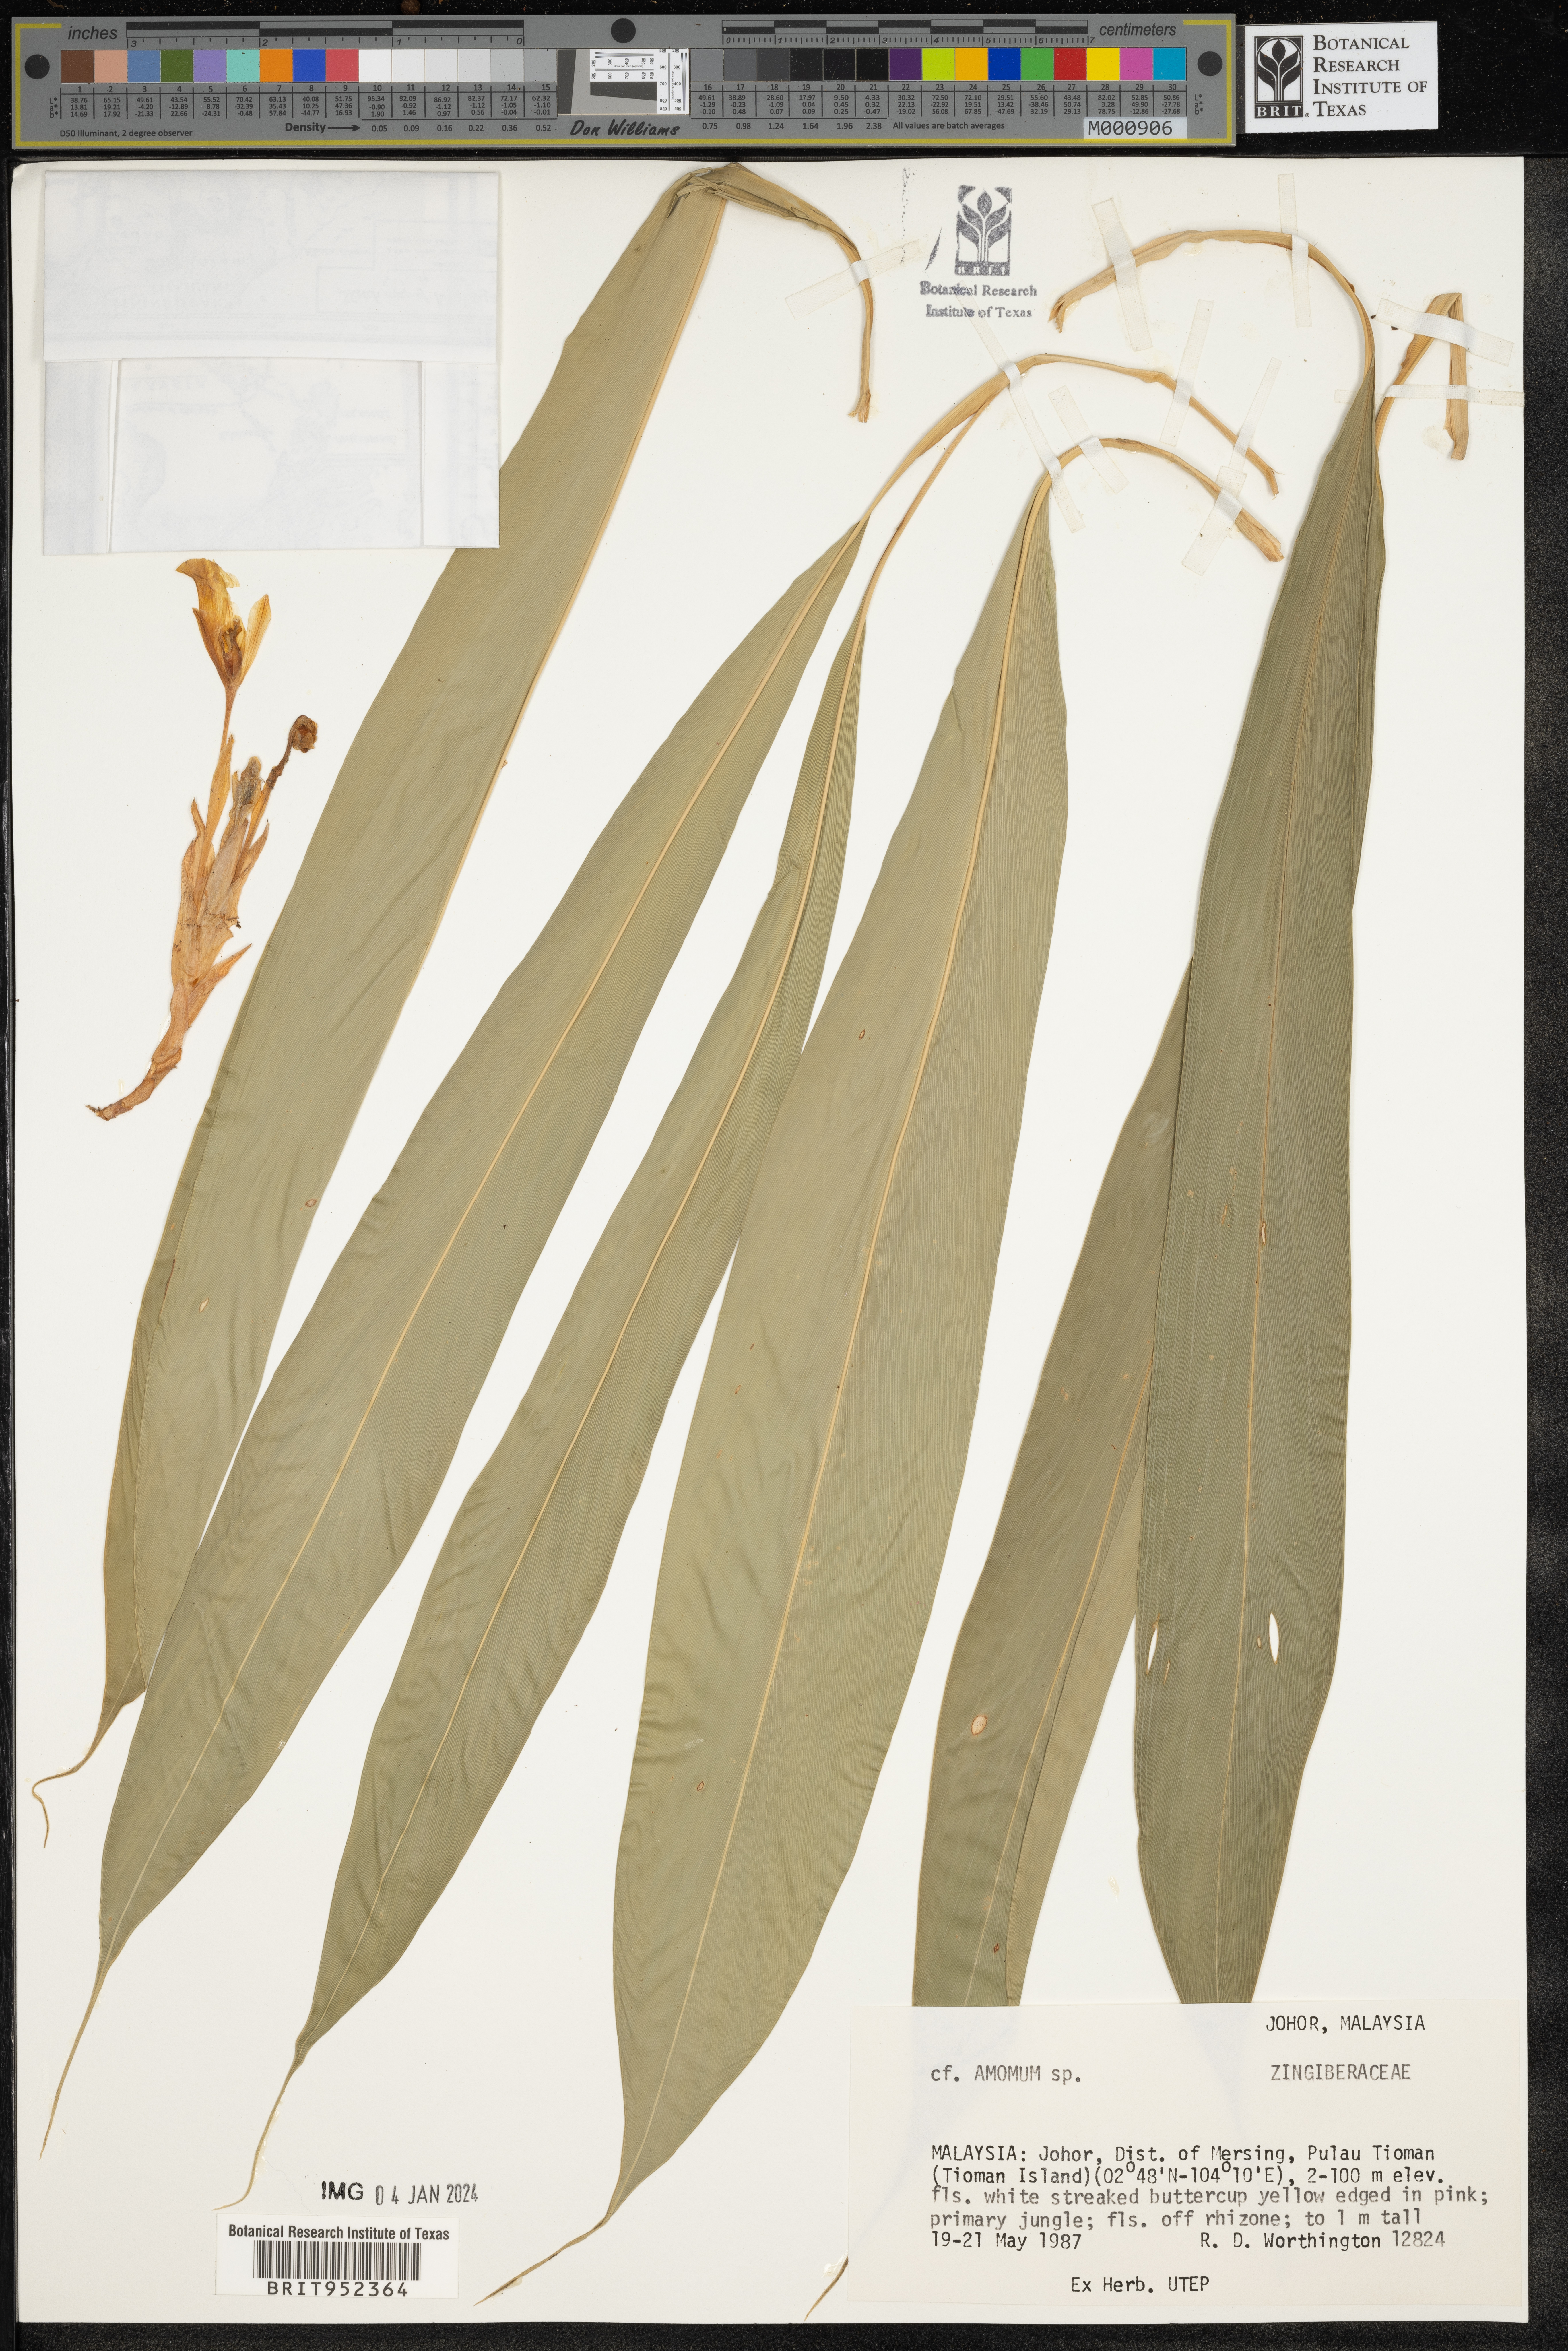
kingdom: Plantae
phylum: Tracheophyta
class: Liliopsida
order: Zingiberales
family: Zingiberaceae
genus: Amomum
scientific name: Amomum
